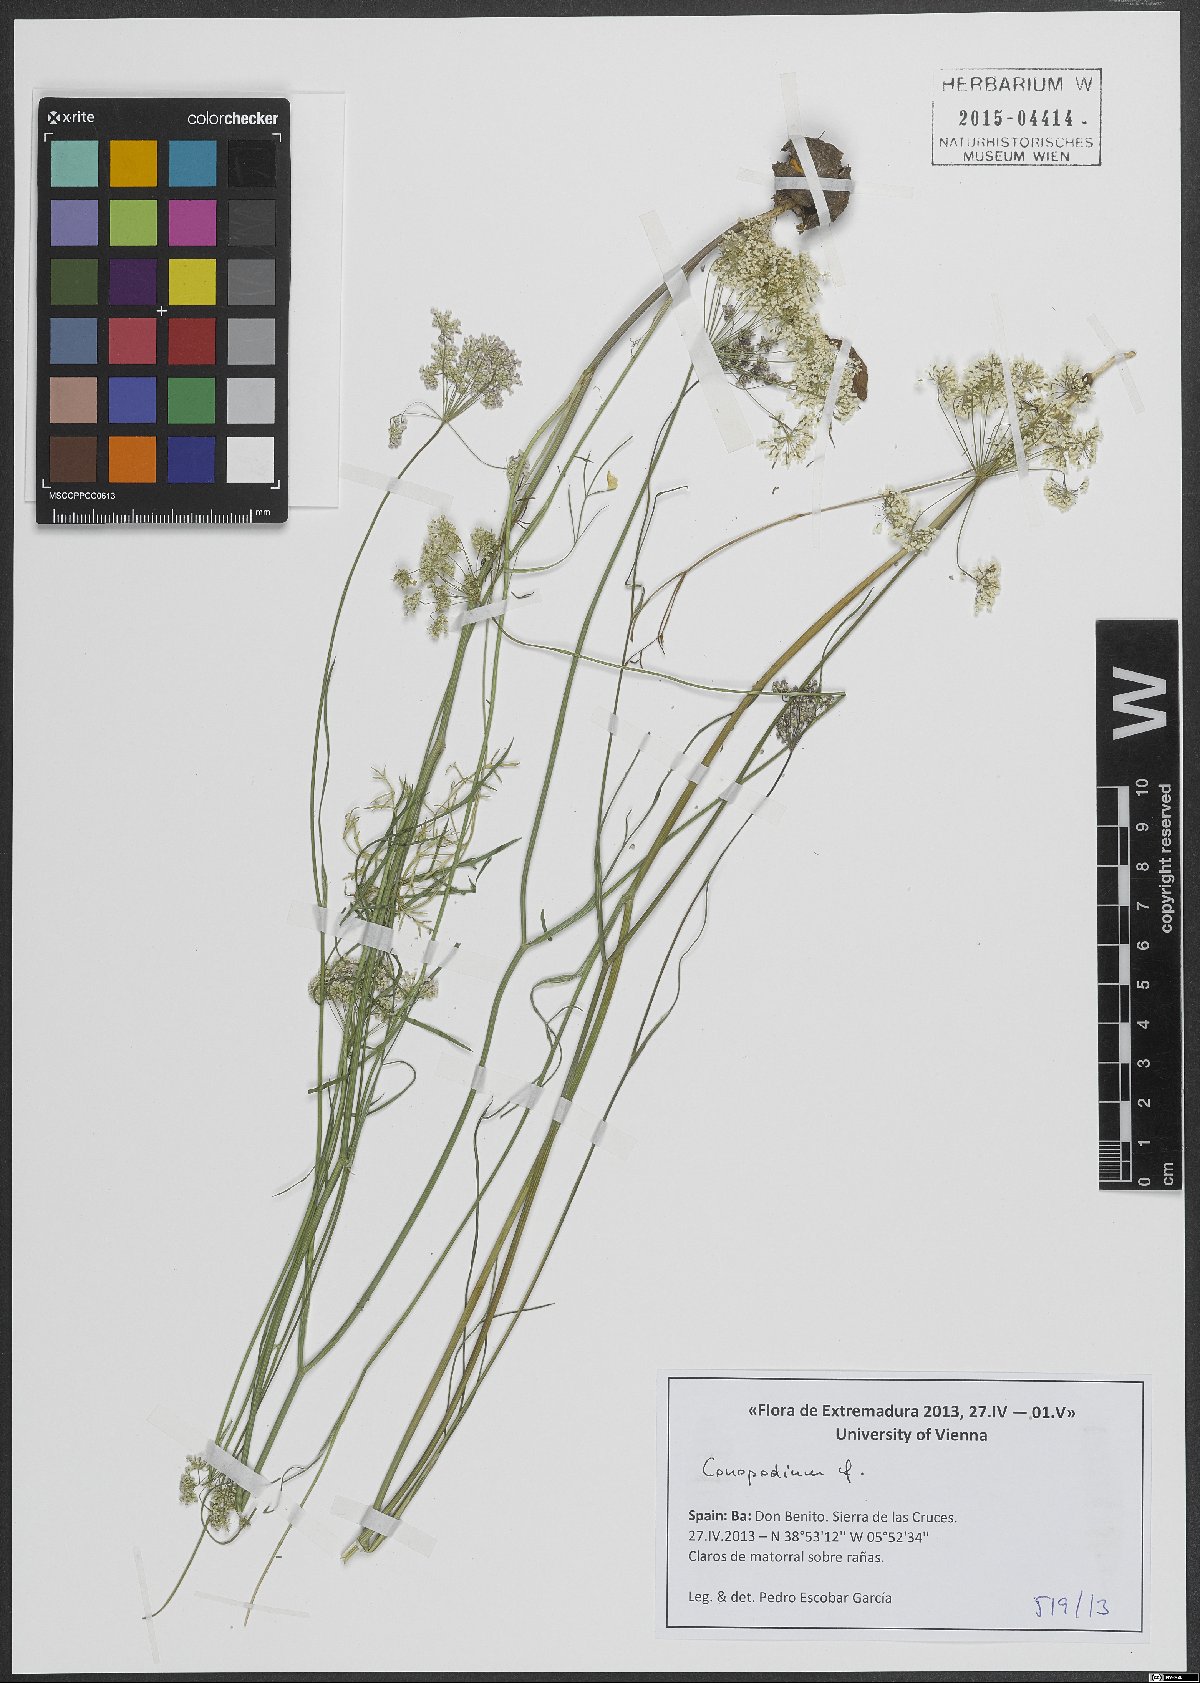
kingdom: Plantae
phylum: Tracheophyta
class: Magnoliopsida
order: Apiales
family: Apiaceae
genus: Conopodium
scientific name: Conopodium
